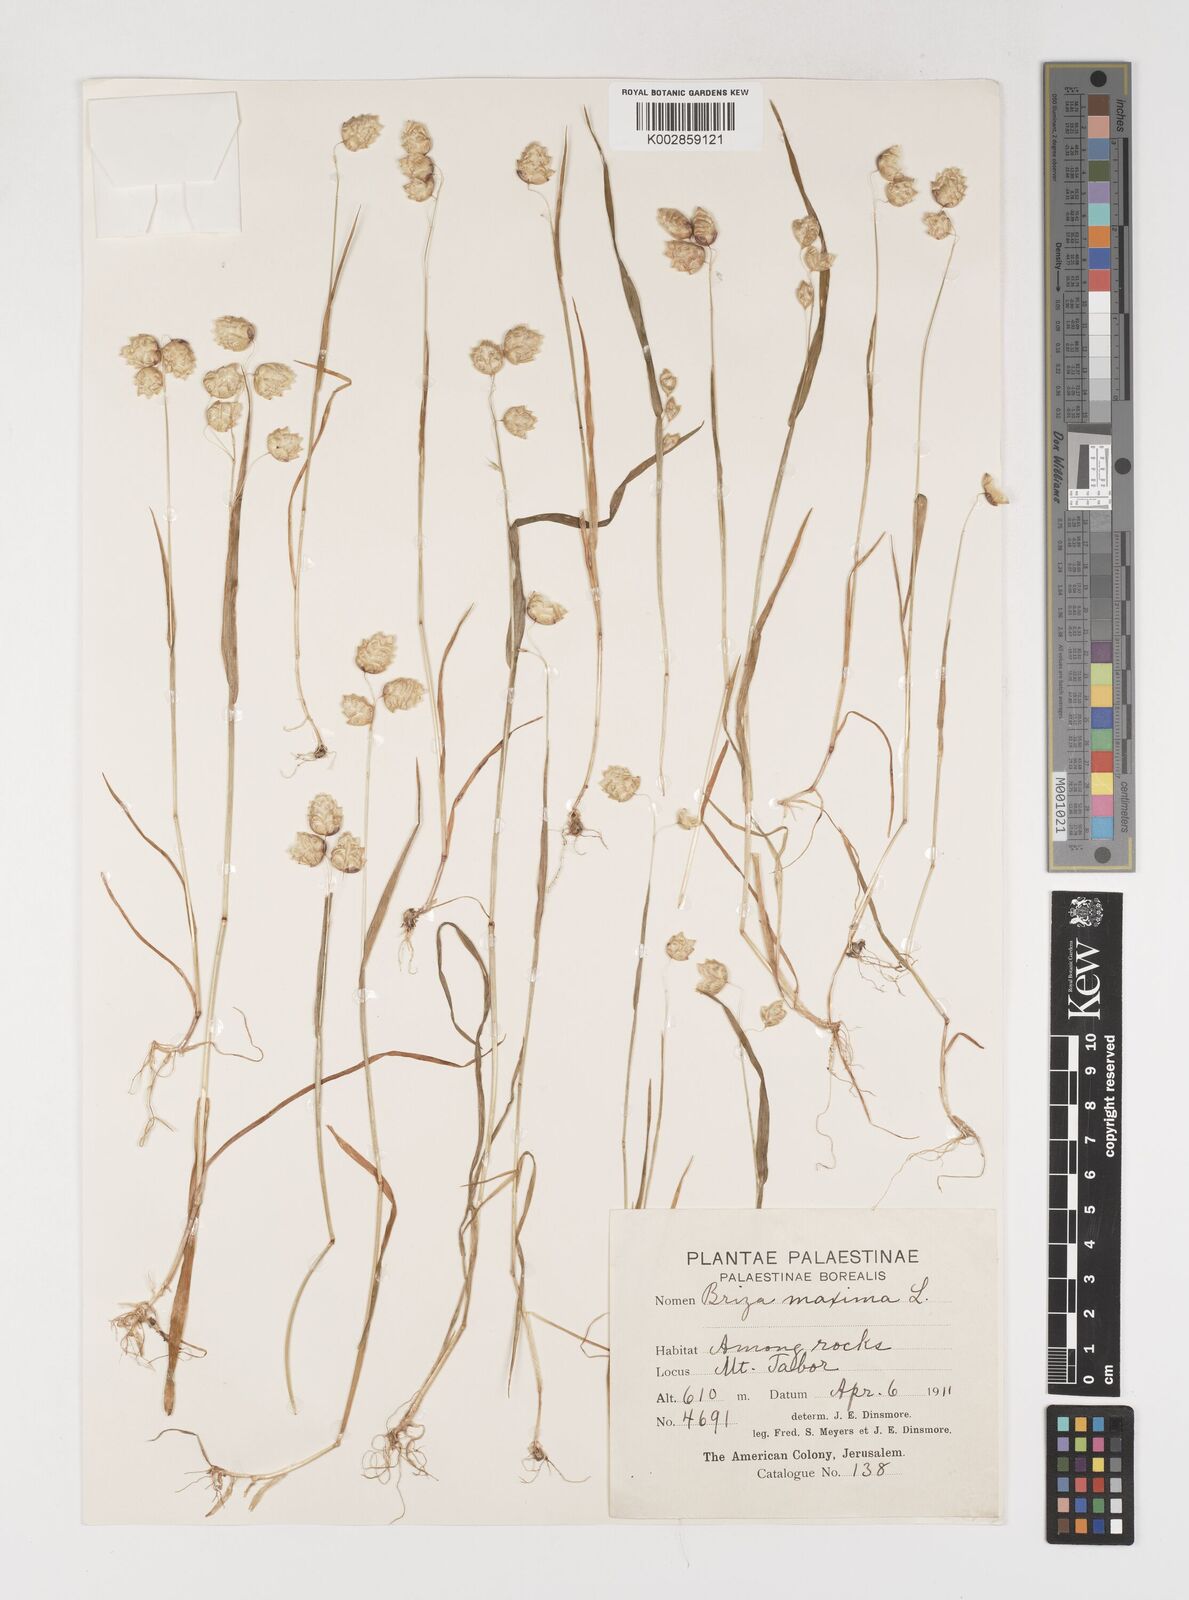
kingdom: Plantae
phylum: Tracheophyta
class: Liliopsida
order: Poales
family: Poaceae
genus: Briza
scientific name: Briza maxima
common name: Big quakinggrass
